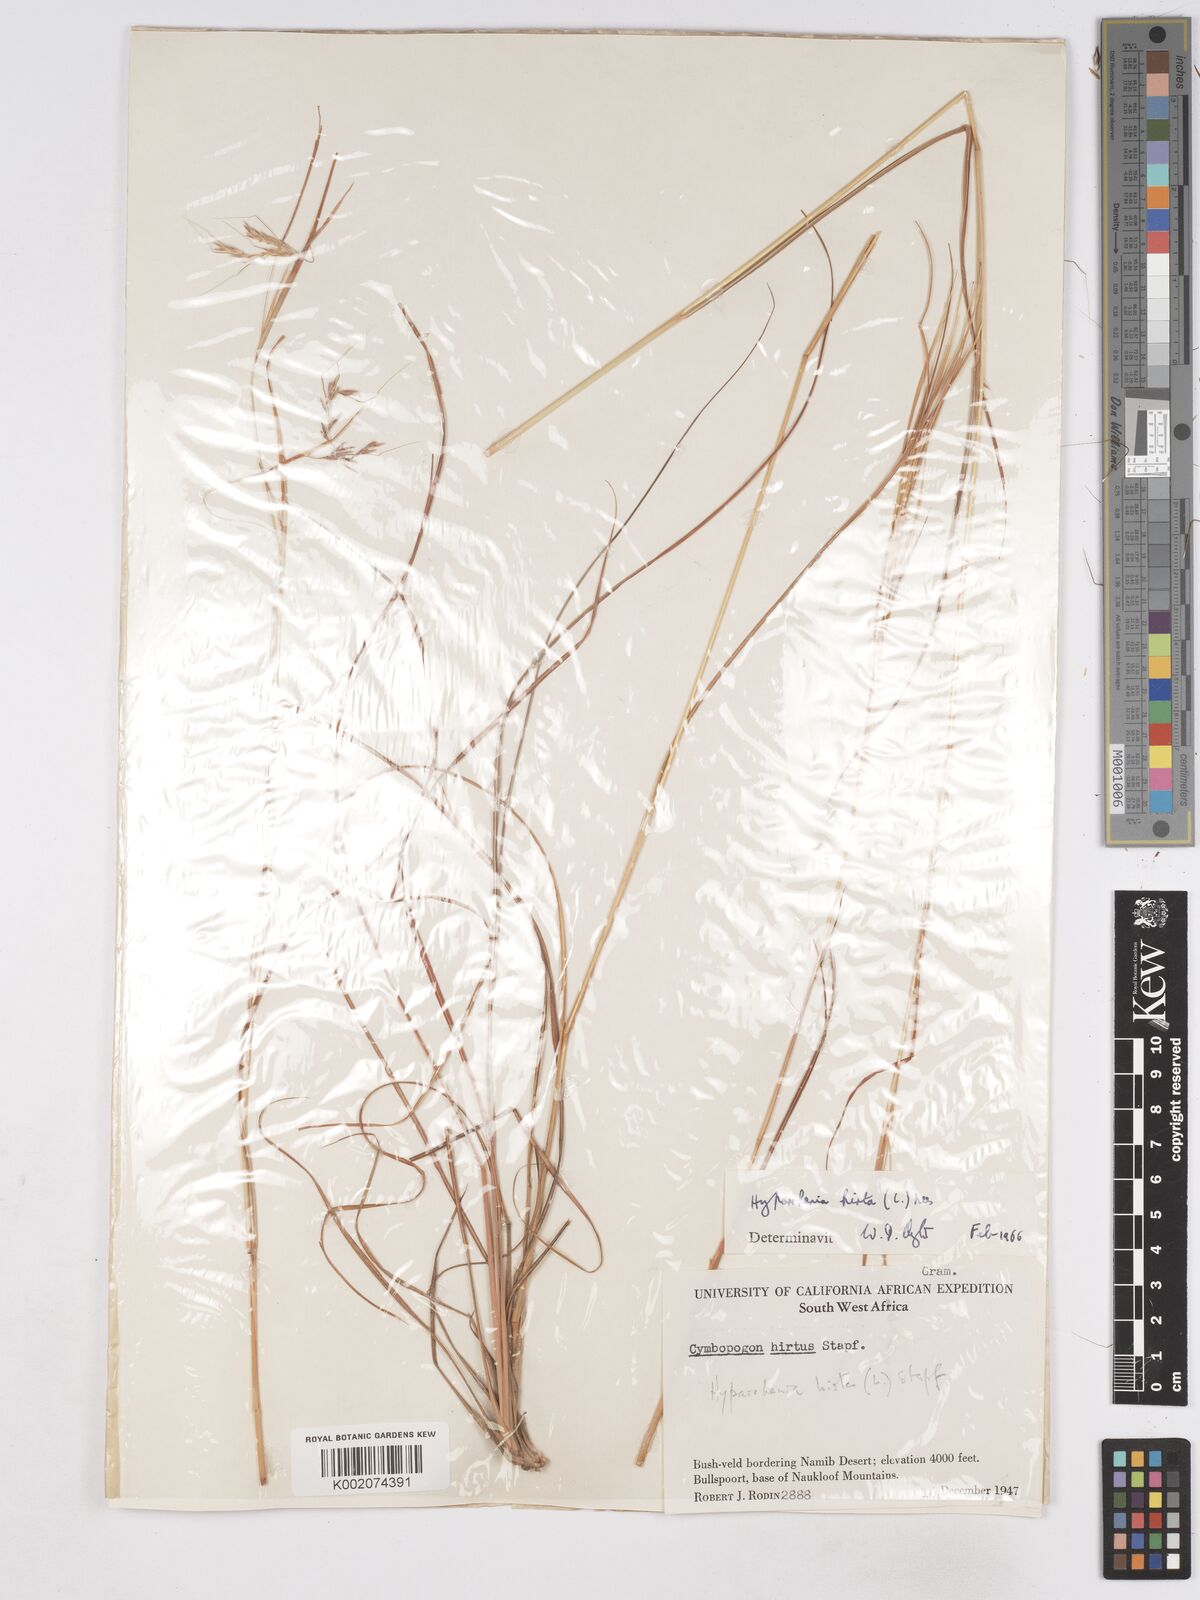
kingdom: Plantae
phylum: Tracheophyta
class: Liliopsida
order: Poales
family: Poaceae
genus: Hyparrhenia
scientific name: Hyparrhenia hirta
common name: Thatching grass
